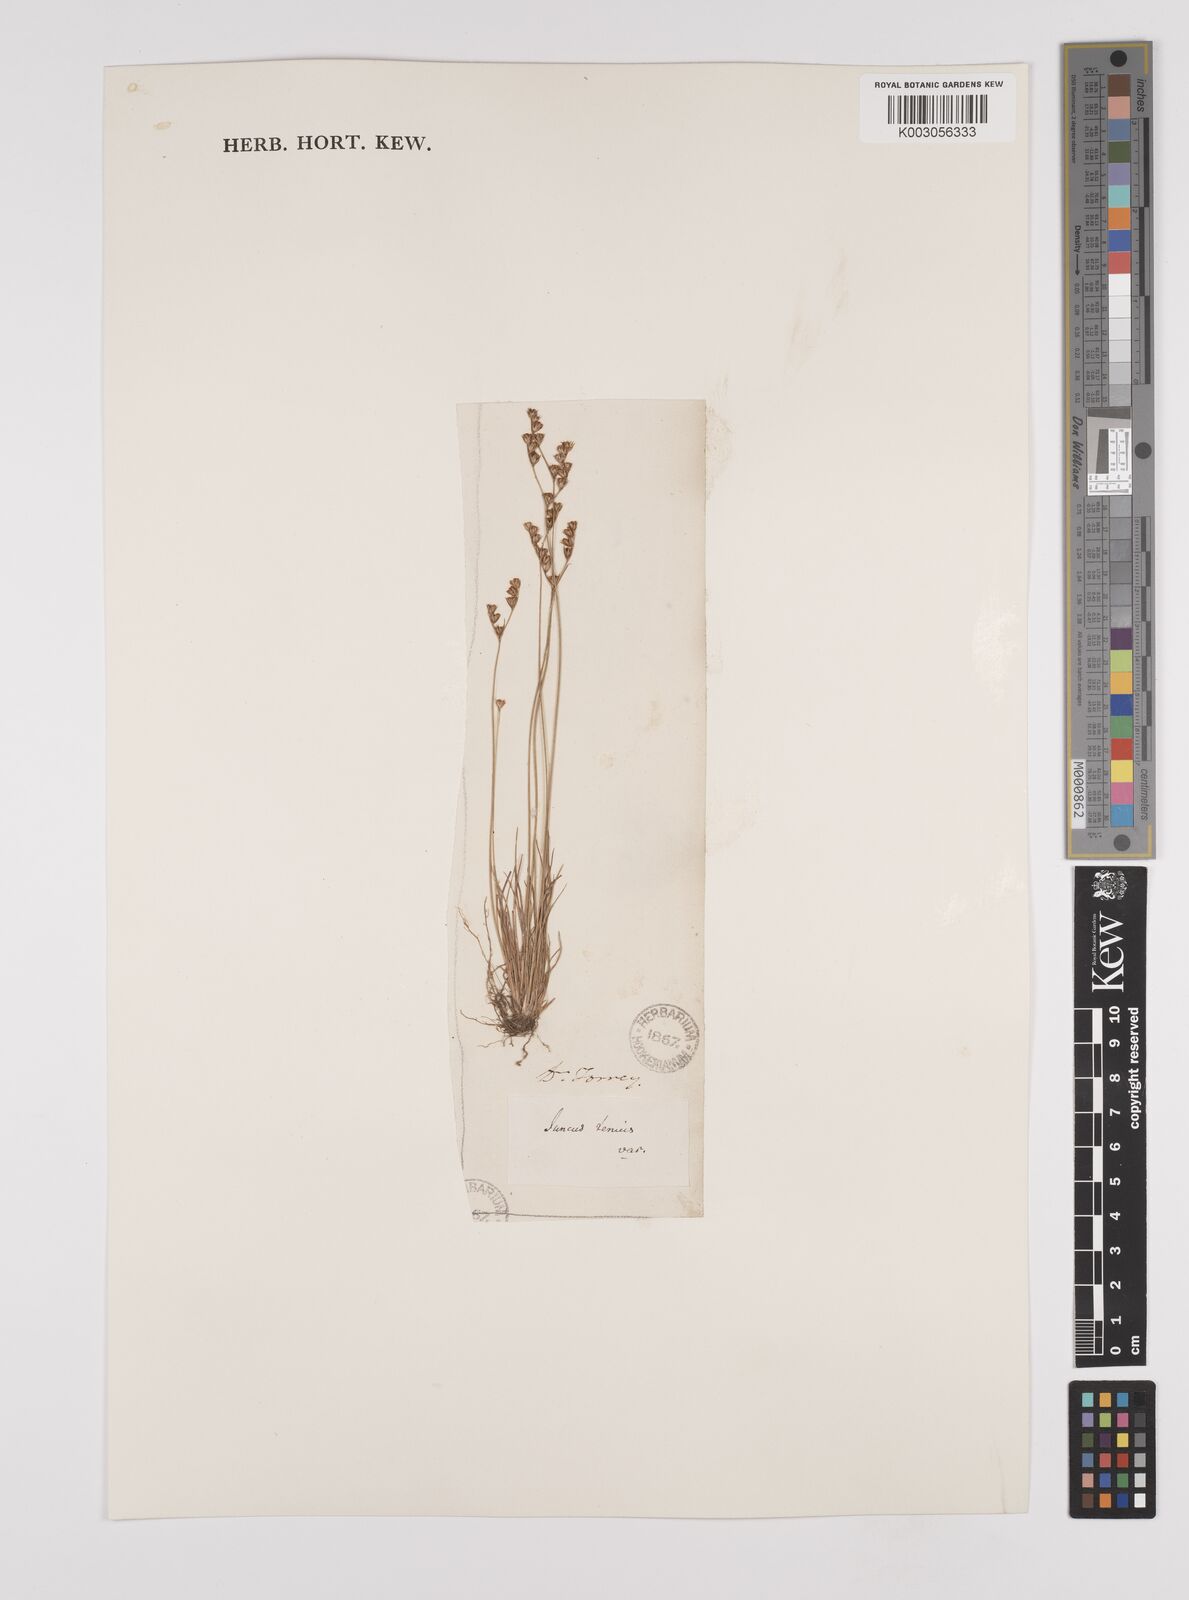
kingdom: Plantae
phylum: Tracheophyta
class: Liliopsida
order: Poales
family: Juncaceae
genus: Juncus
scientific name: Juncus tenuis
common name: Slender rush
